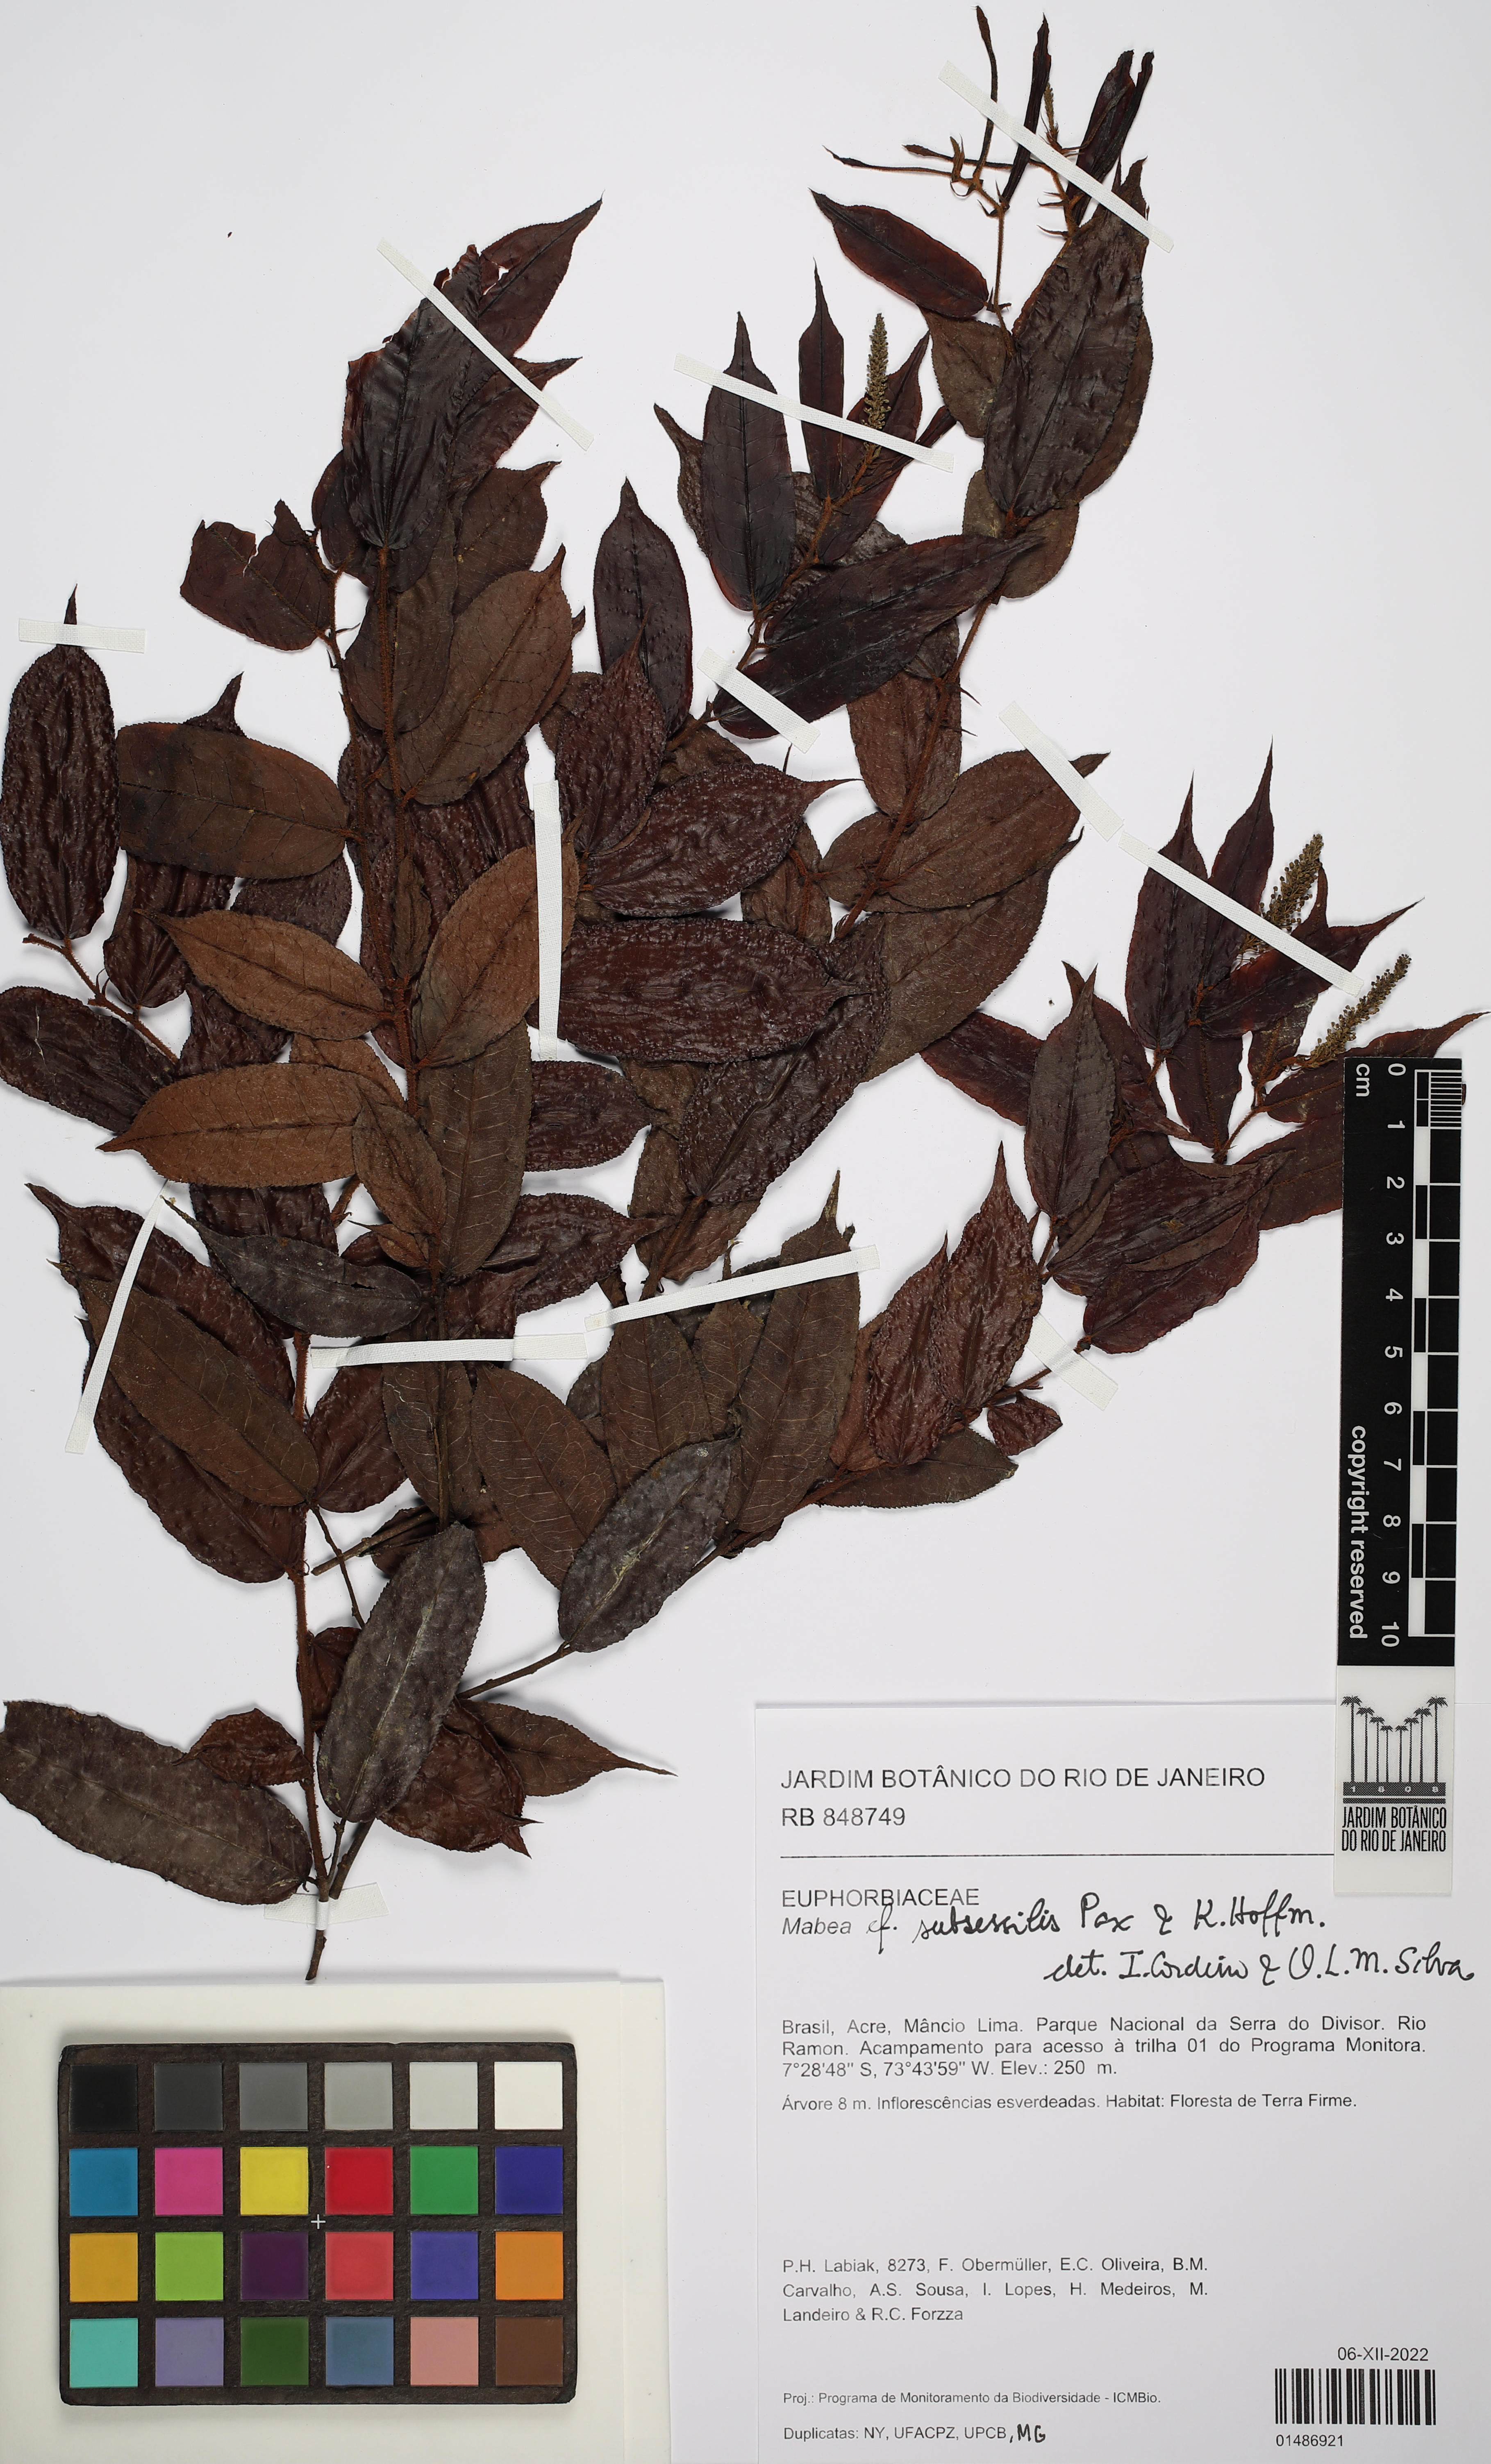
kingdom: Plantae
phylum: Tracheophyta
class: Magnoliopsida
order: Malpighiales
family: Euphorbiaceae
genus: Mabea
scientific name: Mabea subsessilis
